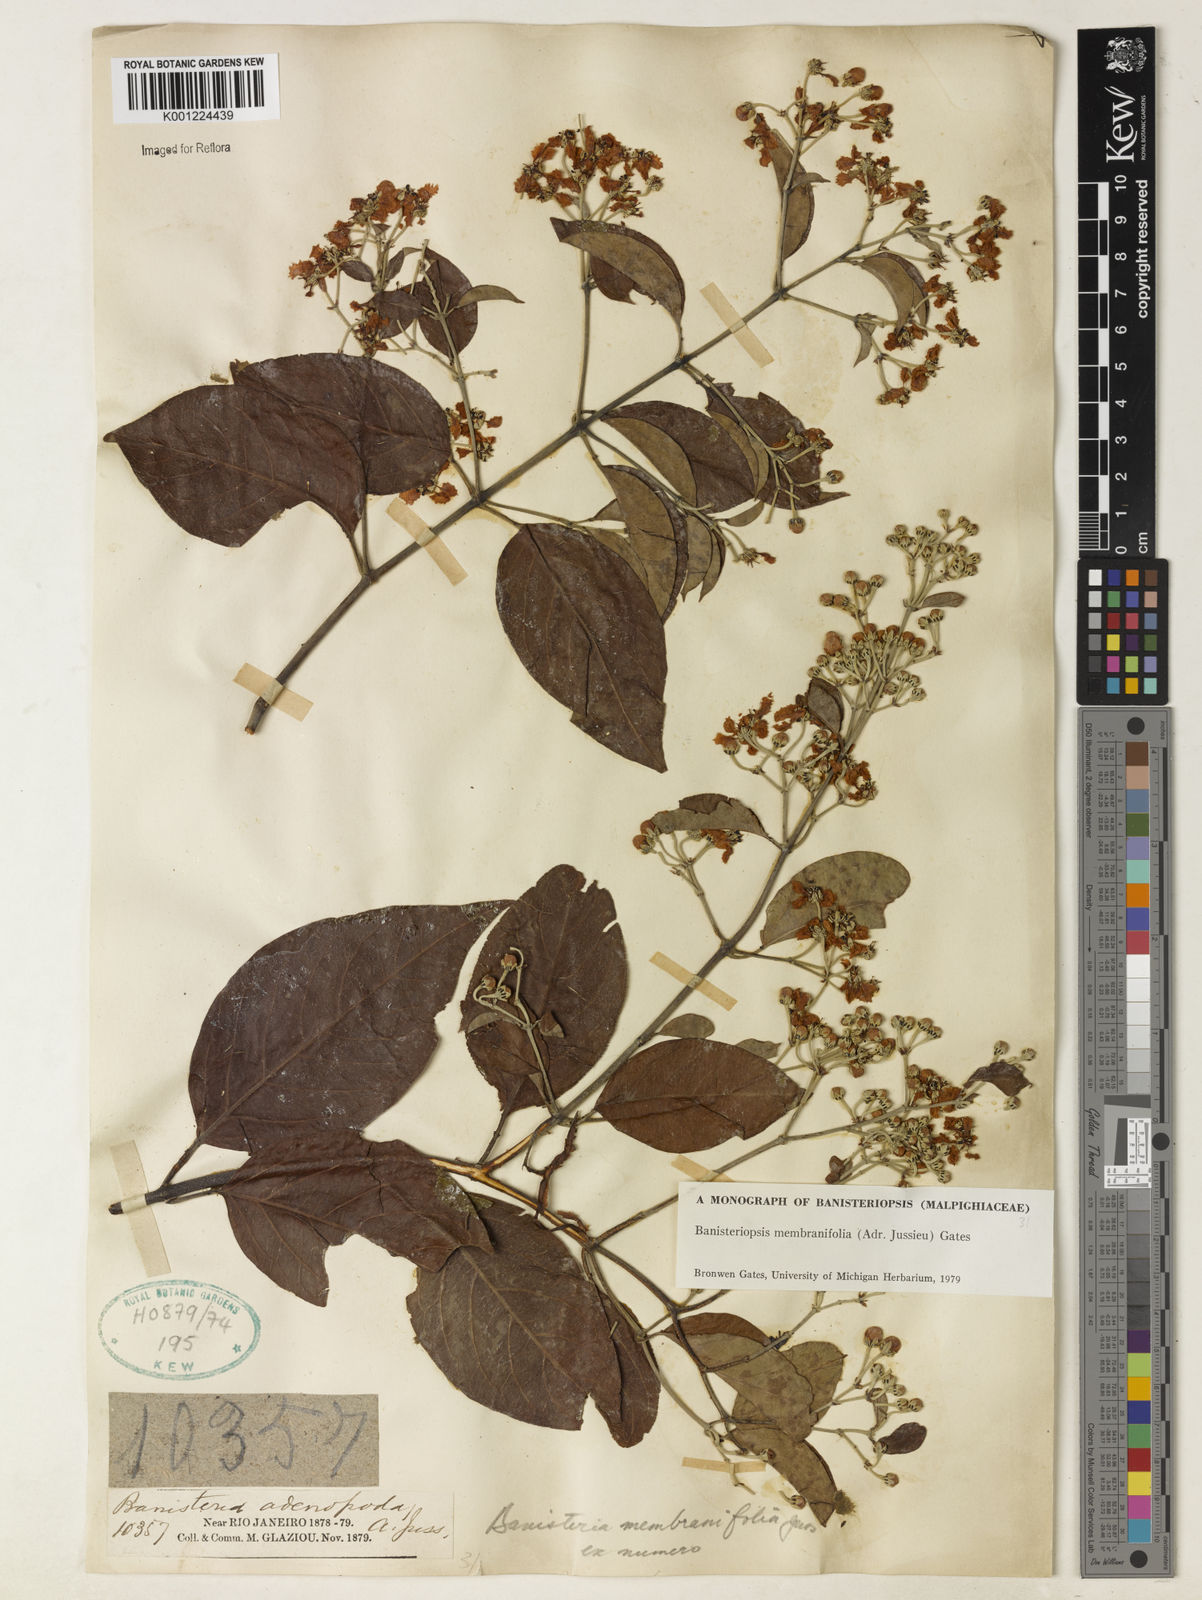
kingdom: Plantae
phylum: Tracheophyta
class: Magnoliopsida
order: Malpighiales
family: Malpighiaceae
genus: Banisteriopsis
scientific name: Banisteriopsis membranifolia
